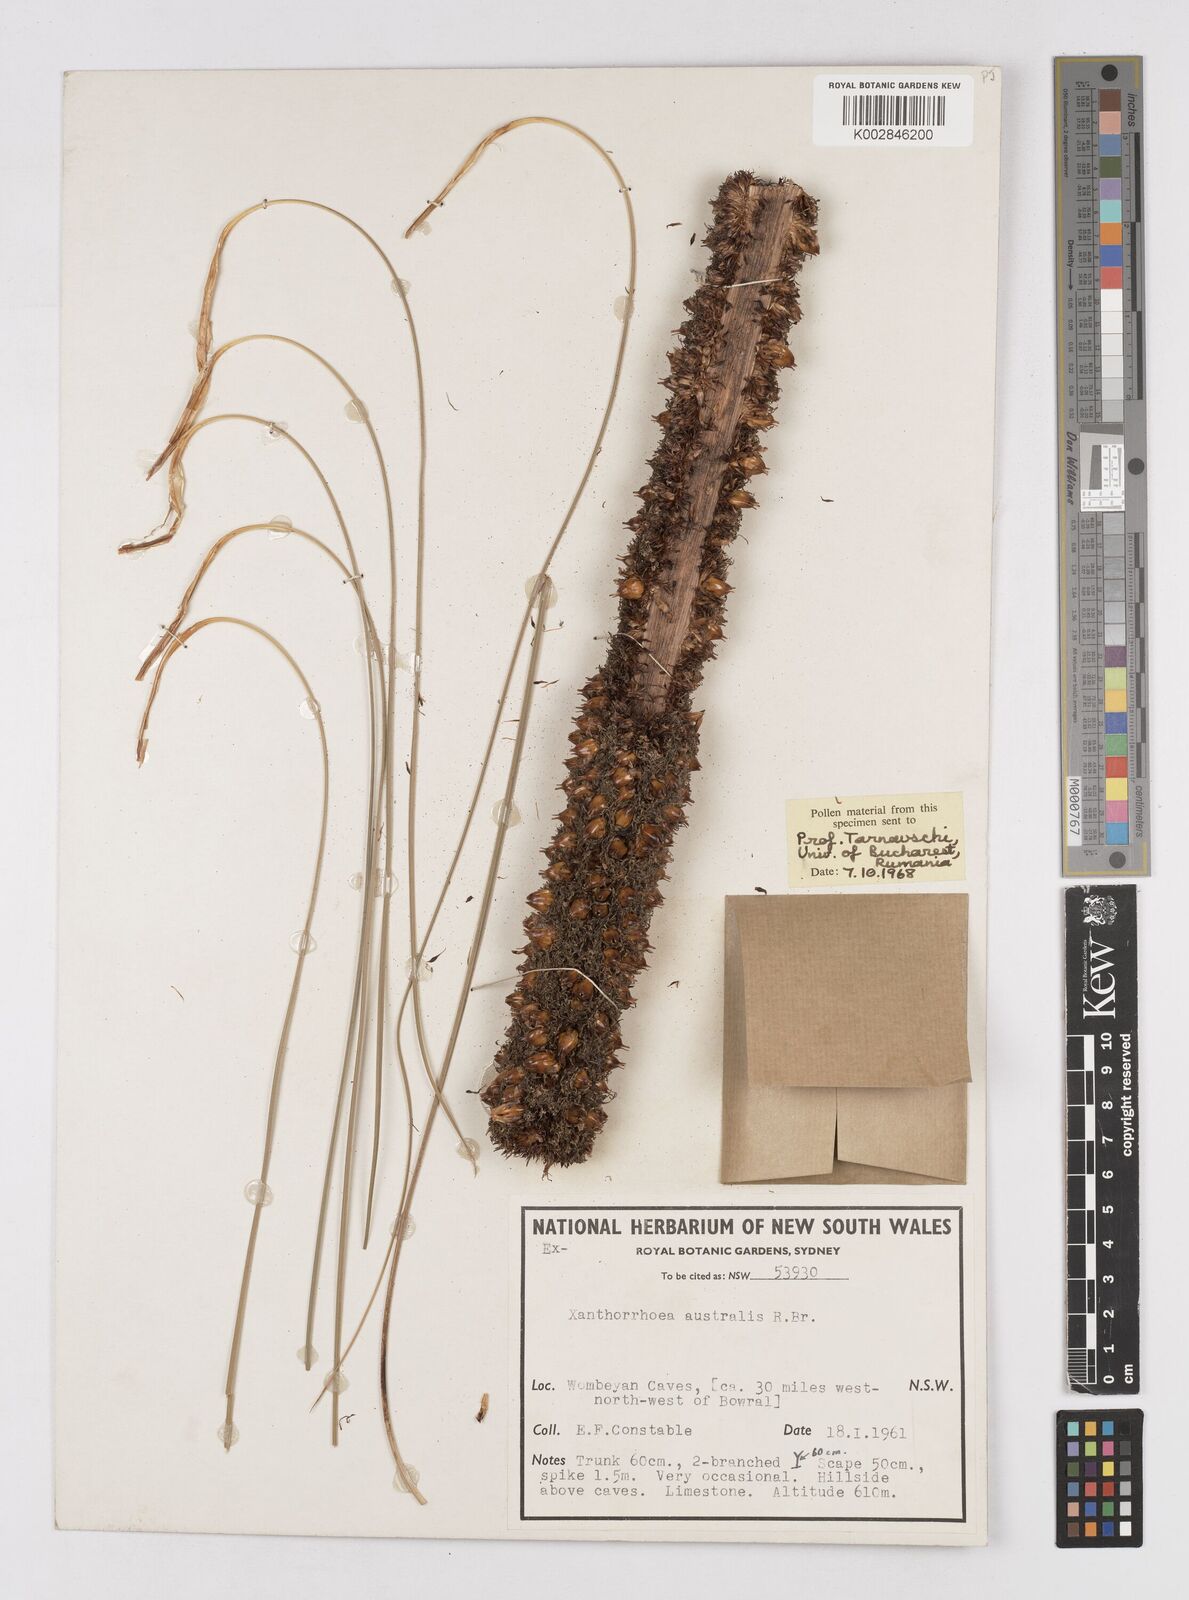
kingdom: Plantae
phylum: Tracheophyta
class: Liliopsida
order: Asparagales
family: Asphodelaceae
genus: Xanthorrhoea
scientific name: Xanthorrhoea australis
